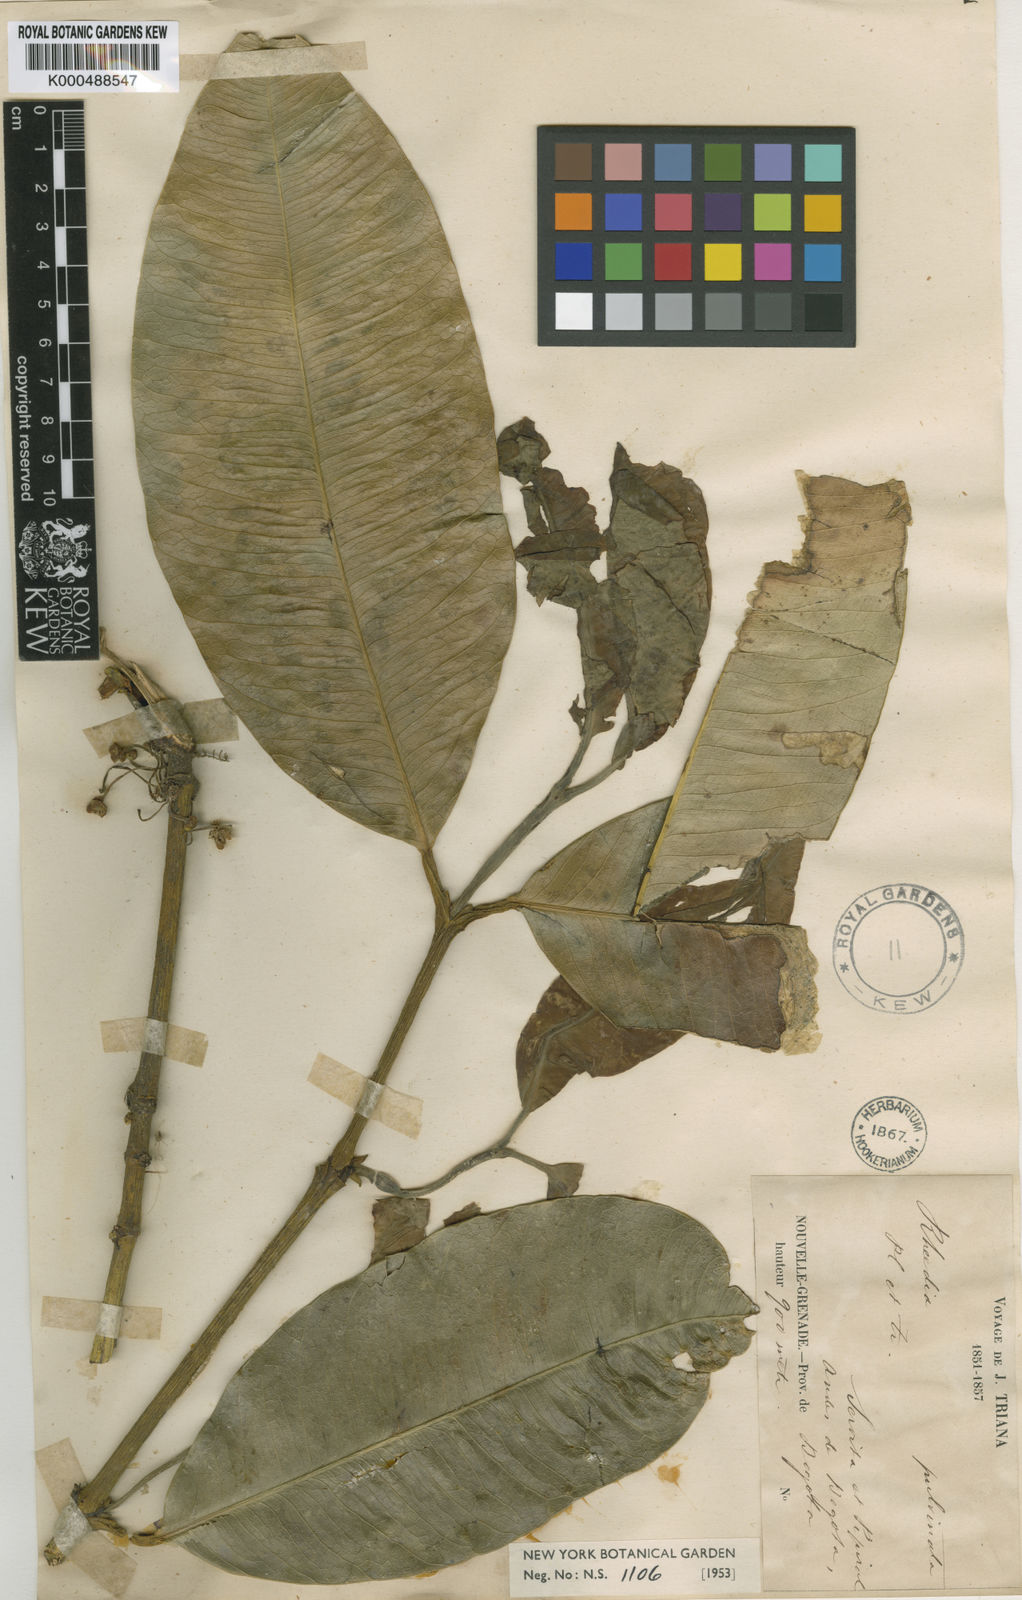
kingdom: Plantae
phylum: Tracheophyta
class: Magnoliopsida
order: Malpighiales
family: Clusiaceae
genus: Garcinia
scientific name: Garcinia pulvinata
